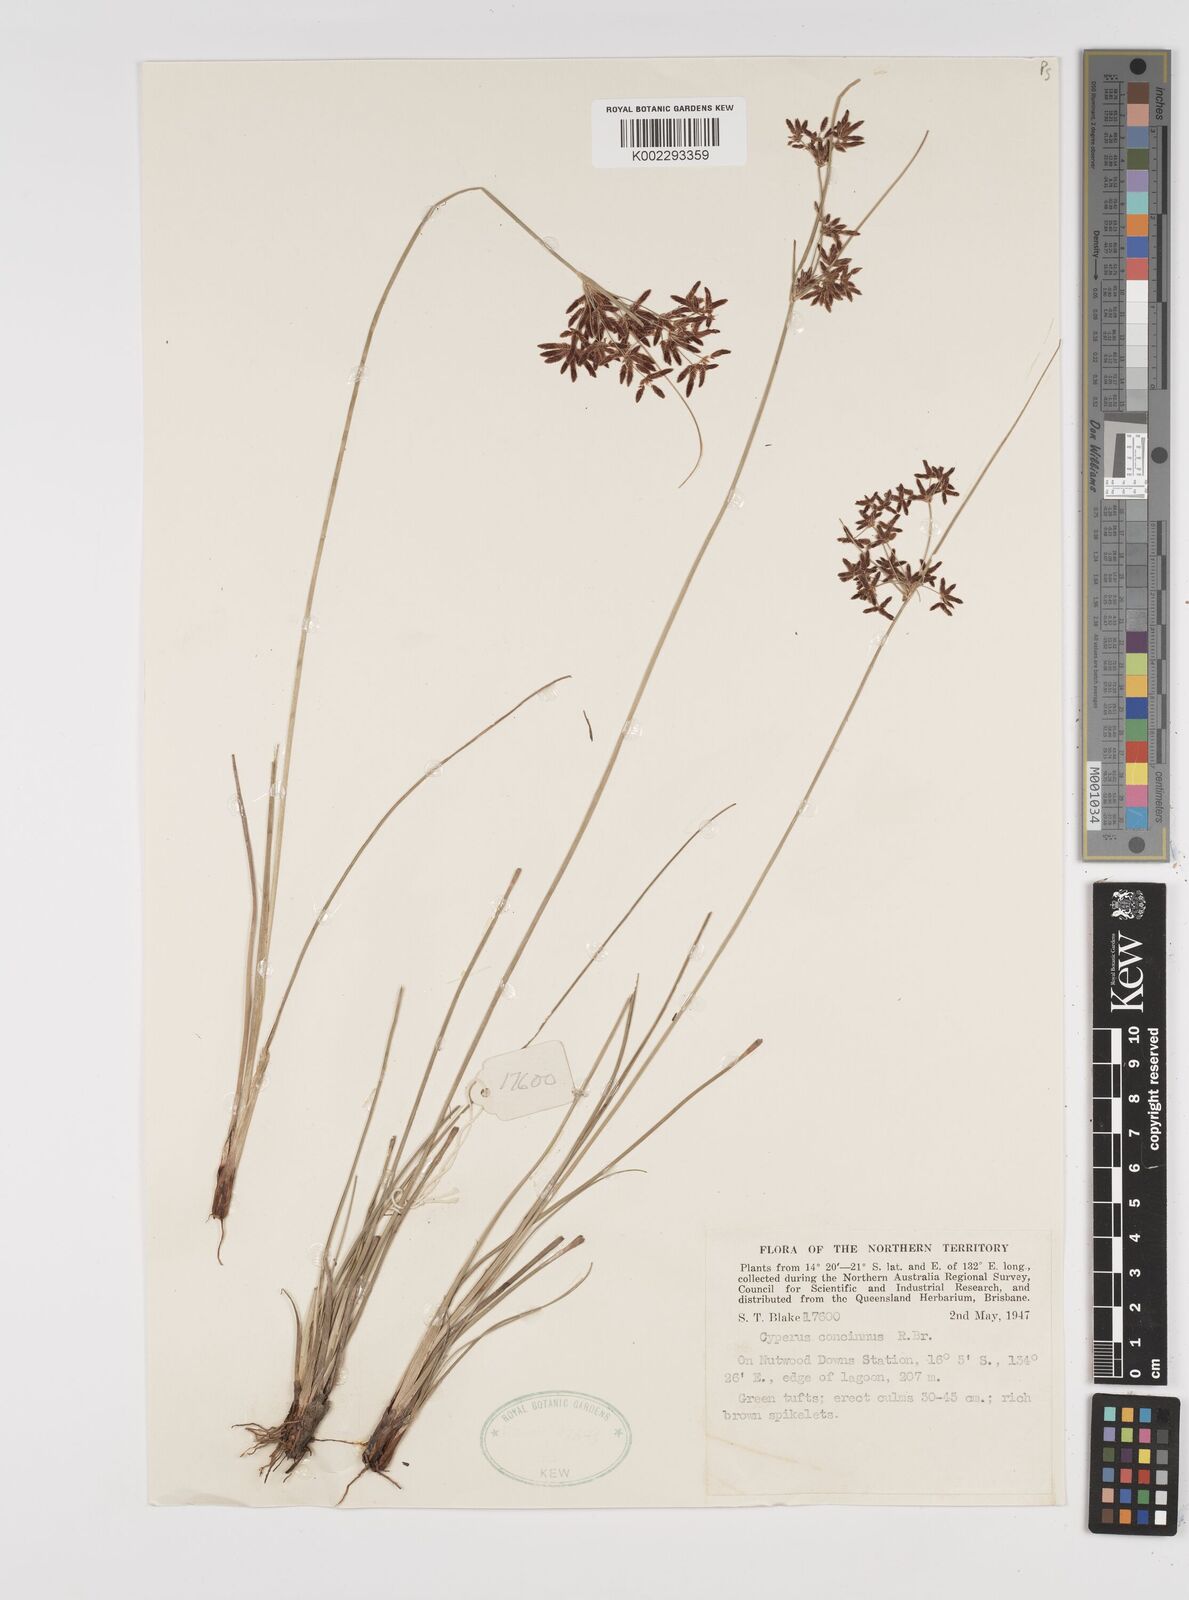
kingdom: Plantae
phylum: Tracheophyta
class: Liliopsida
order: Poales
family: Cyperaceae
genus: Cyperus
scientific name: Cyperus concinnus
